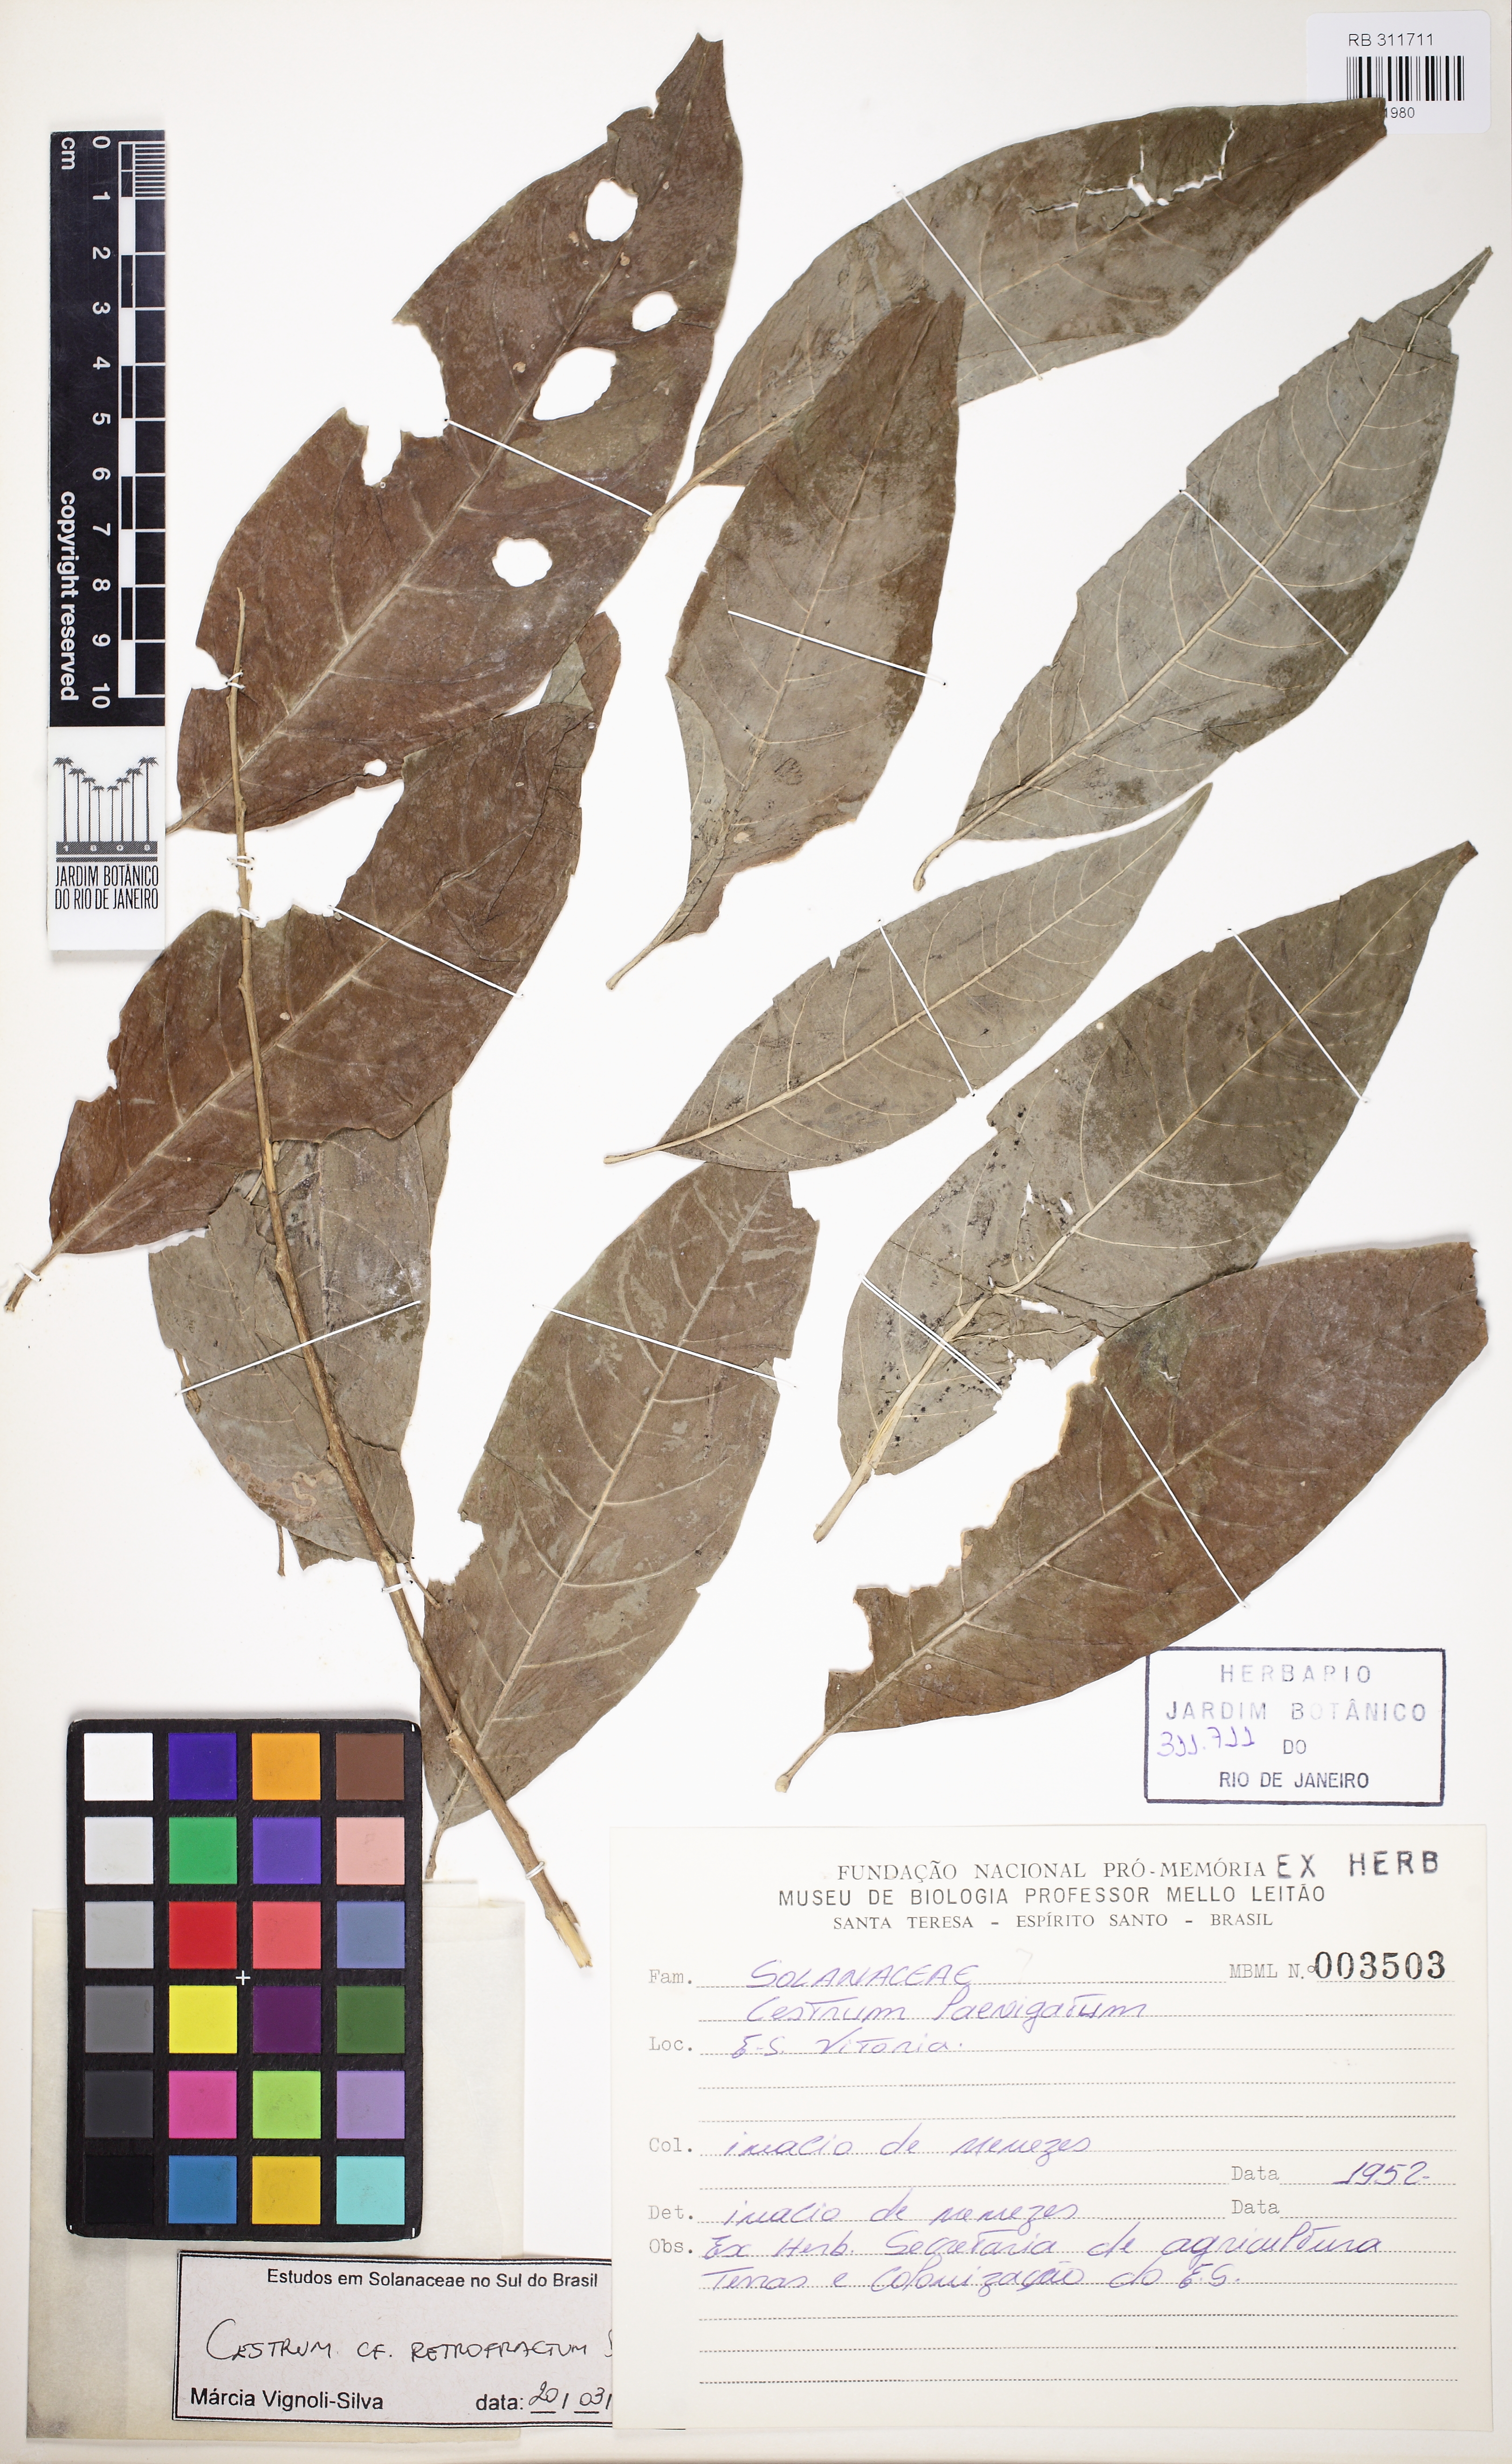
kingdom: Plantae
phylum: Tracheophyta
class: Magnoliopsida
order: Solanales
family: Solanaceae
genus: Cestrum
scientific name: Cestrum retrofractum
